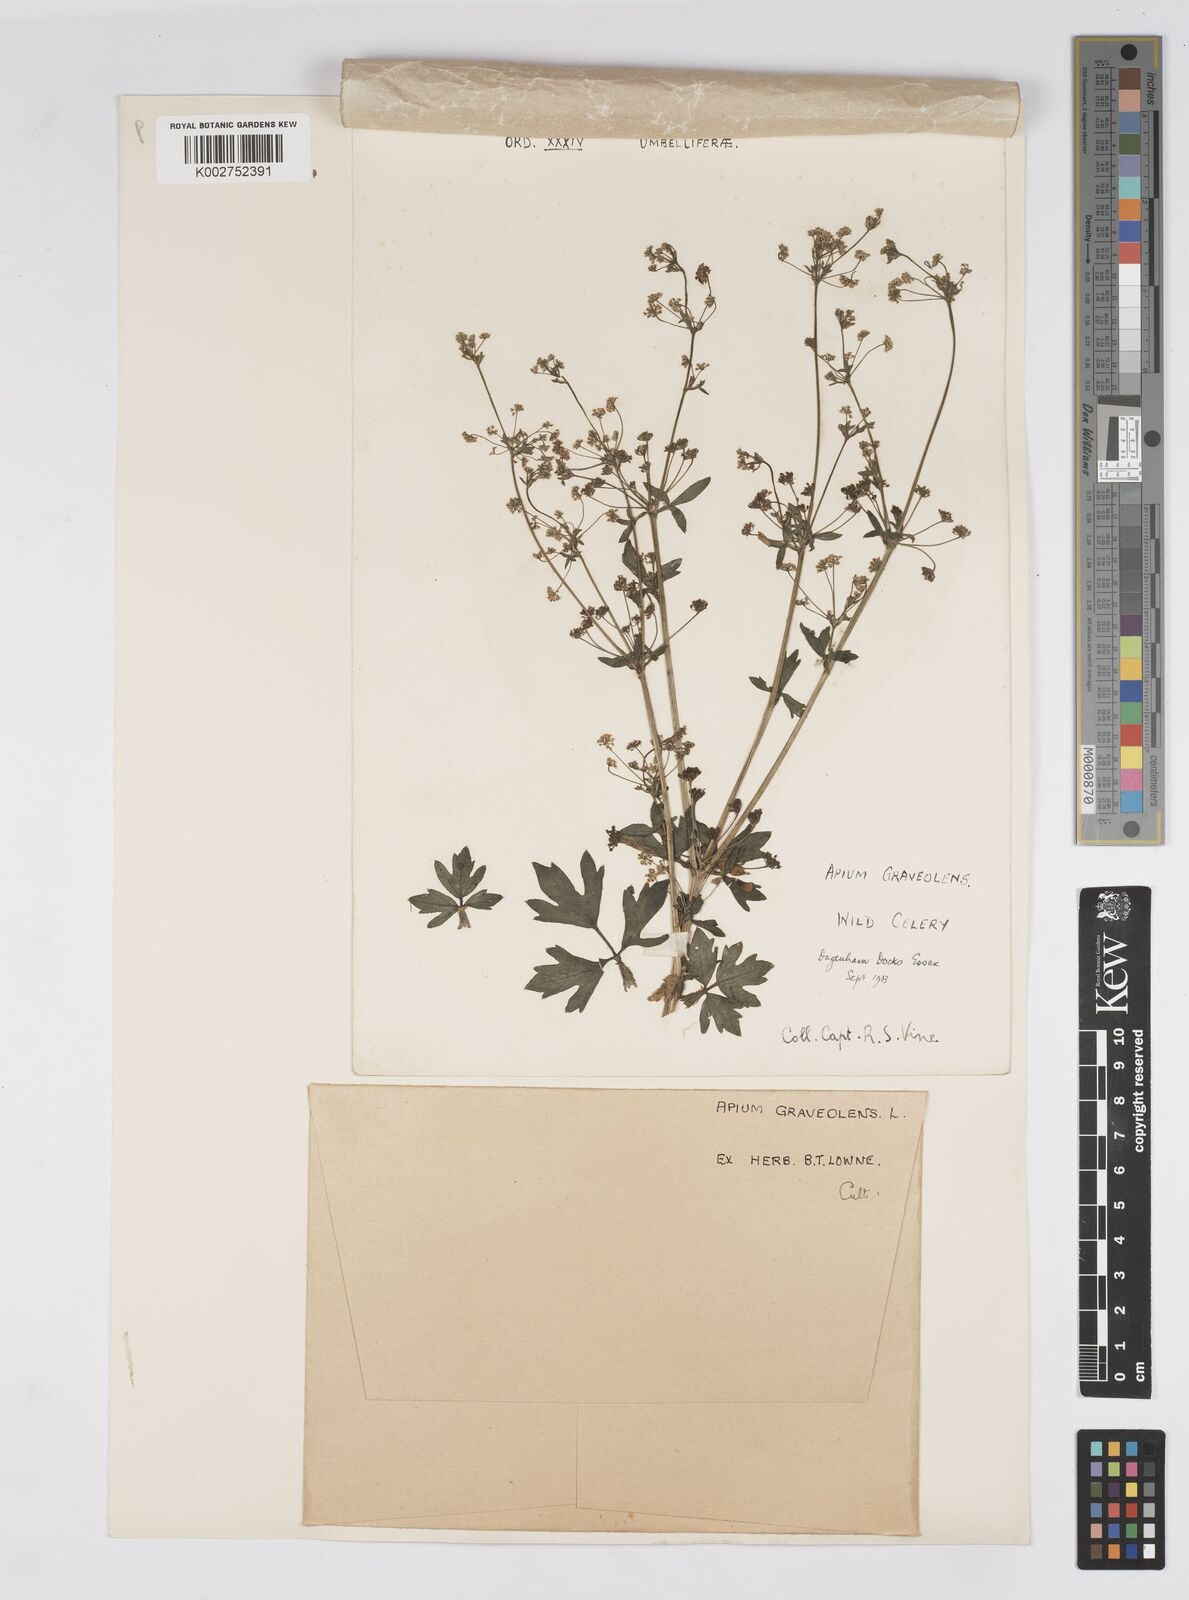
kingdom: Plantae
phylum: Tracheophyta
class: Magnoliopsida
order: Apiales
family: Apiaceae
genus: Apium
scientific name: Apium graveolens
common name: Wild celery
